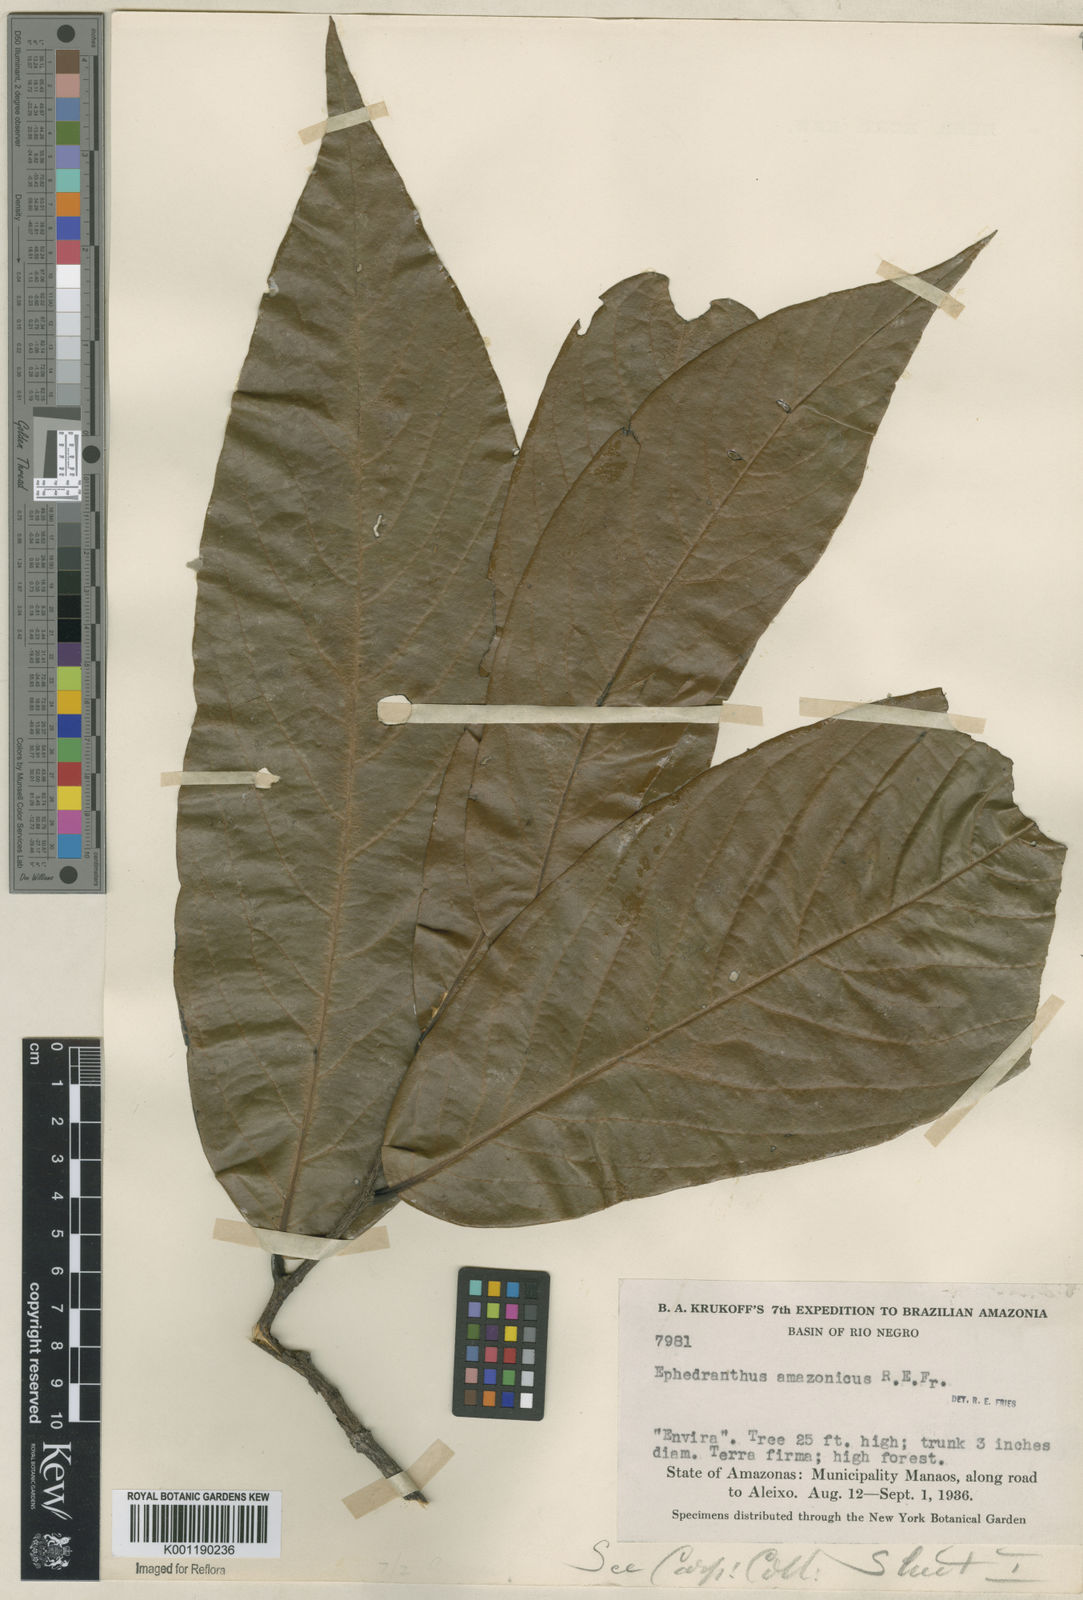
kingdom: Plantae
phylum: Tracheophyta
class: Magnoliopsida
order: Magnoliales
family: Annonaceae
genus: Ephedranthus
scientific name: Ephedranthus amazonicus
